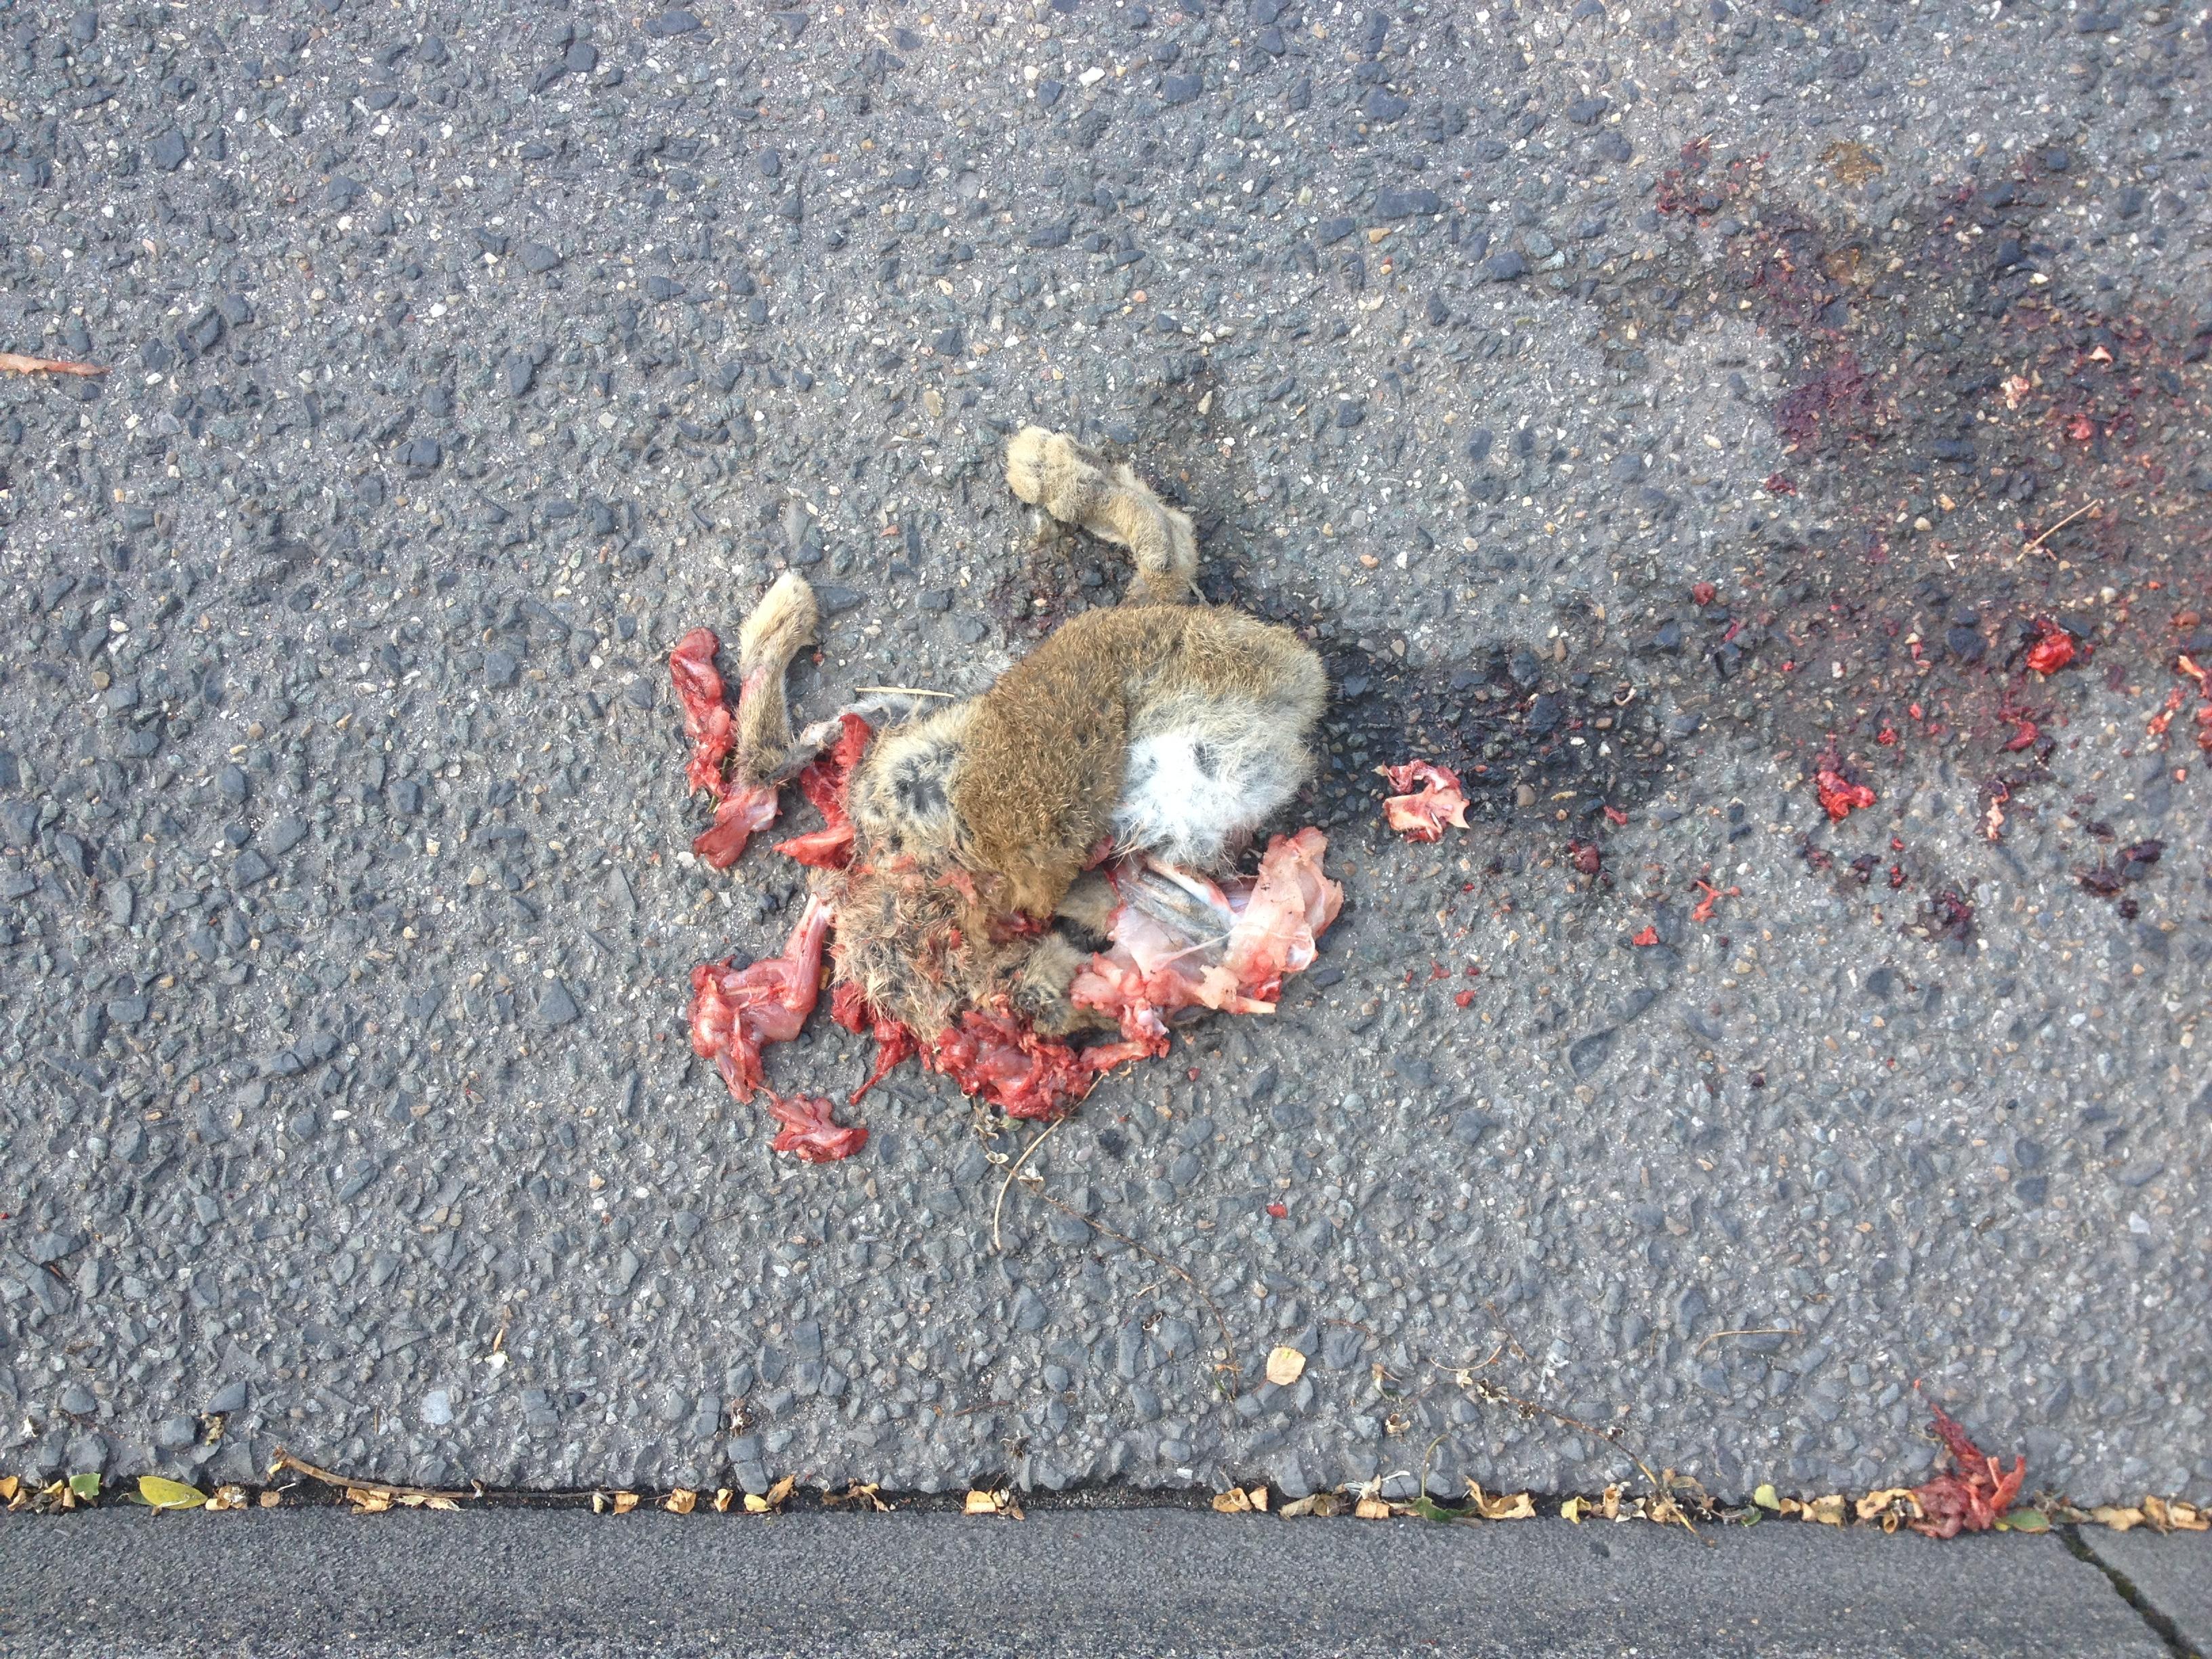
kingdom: Animalia
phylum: Chordata
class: Mammalia
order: Lagomorpha
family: Leporidae
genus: Oryctolagus
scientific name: Oryctolagus cuniculus
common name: European rabbit
